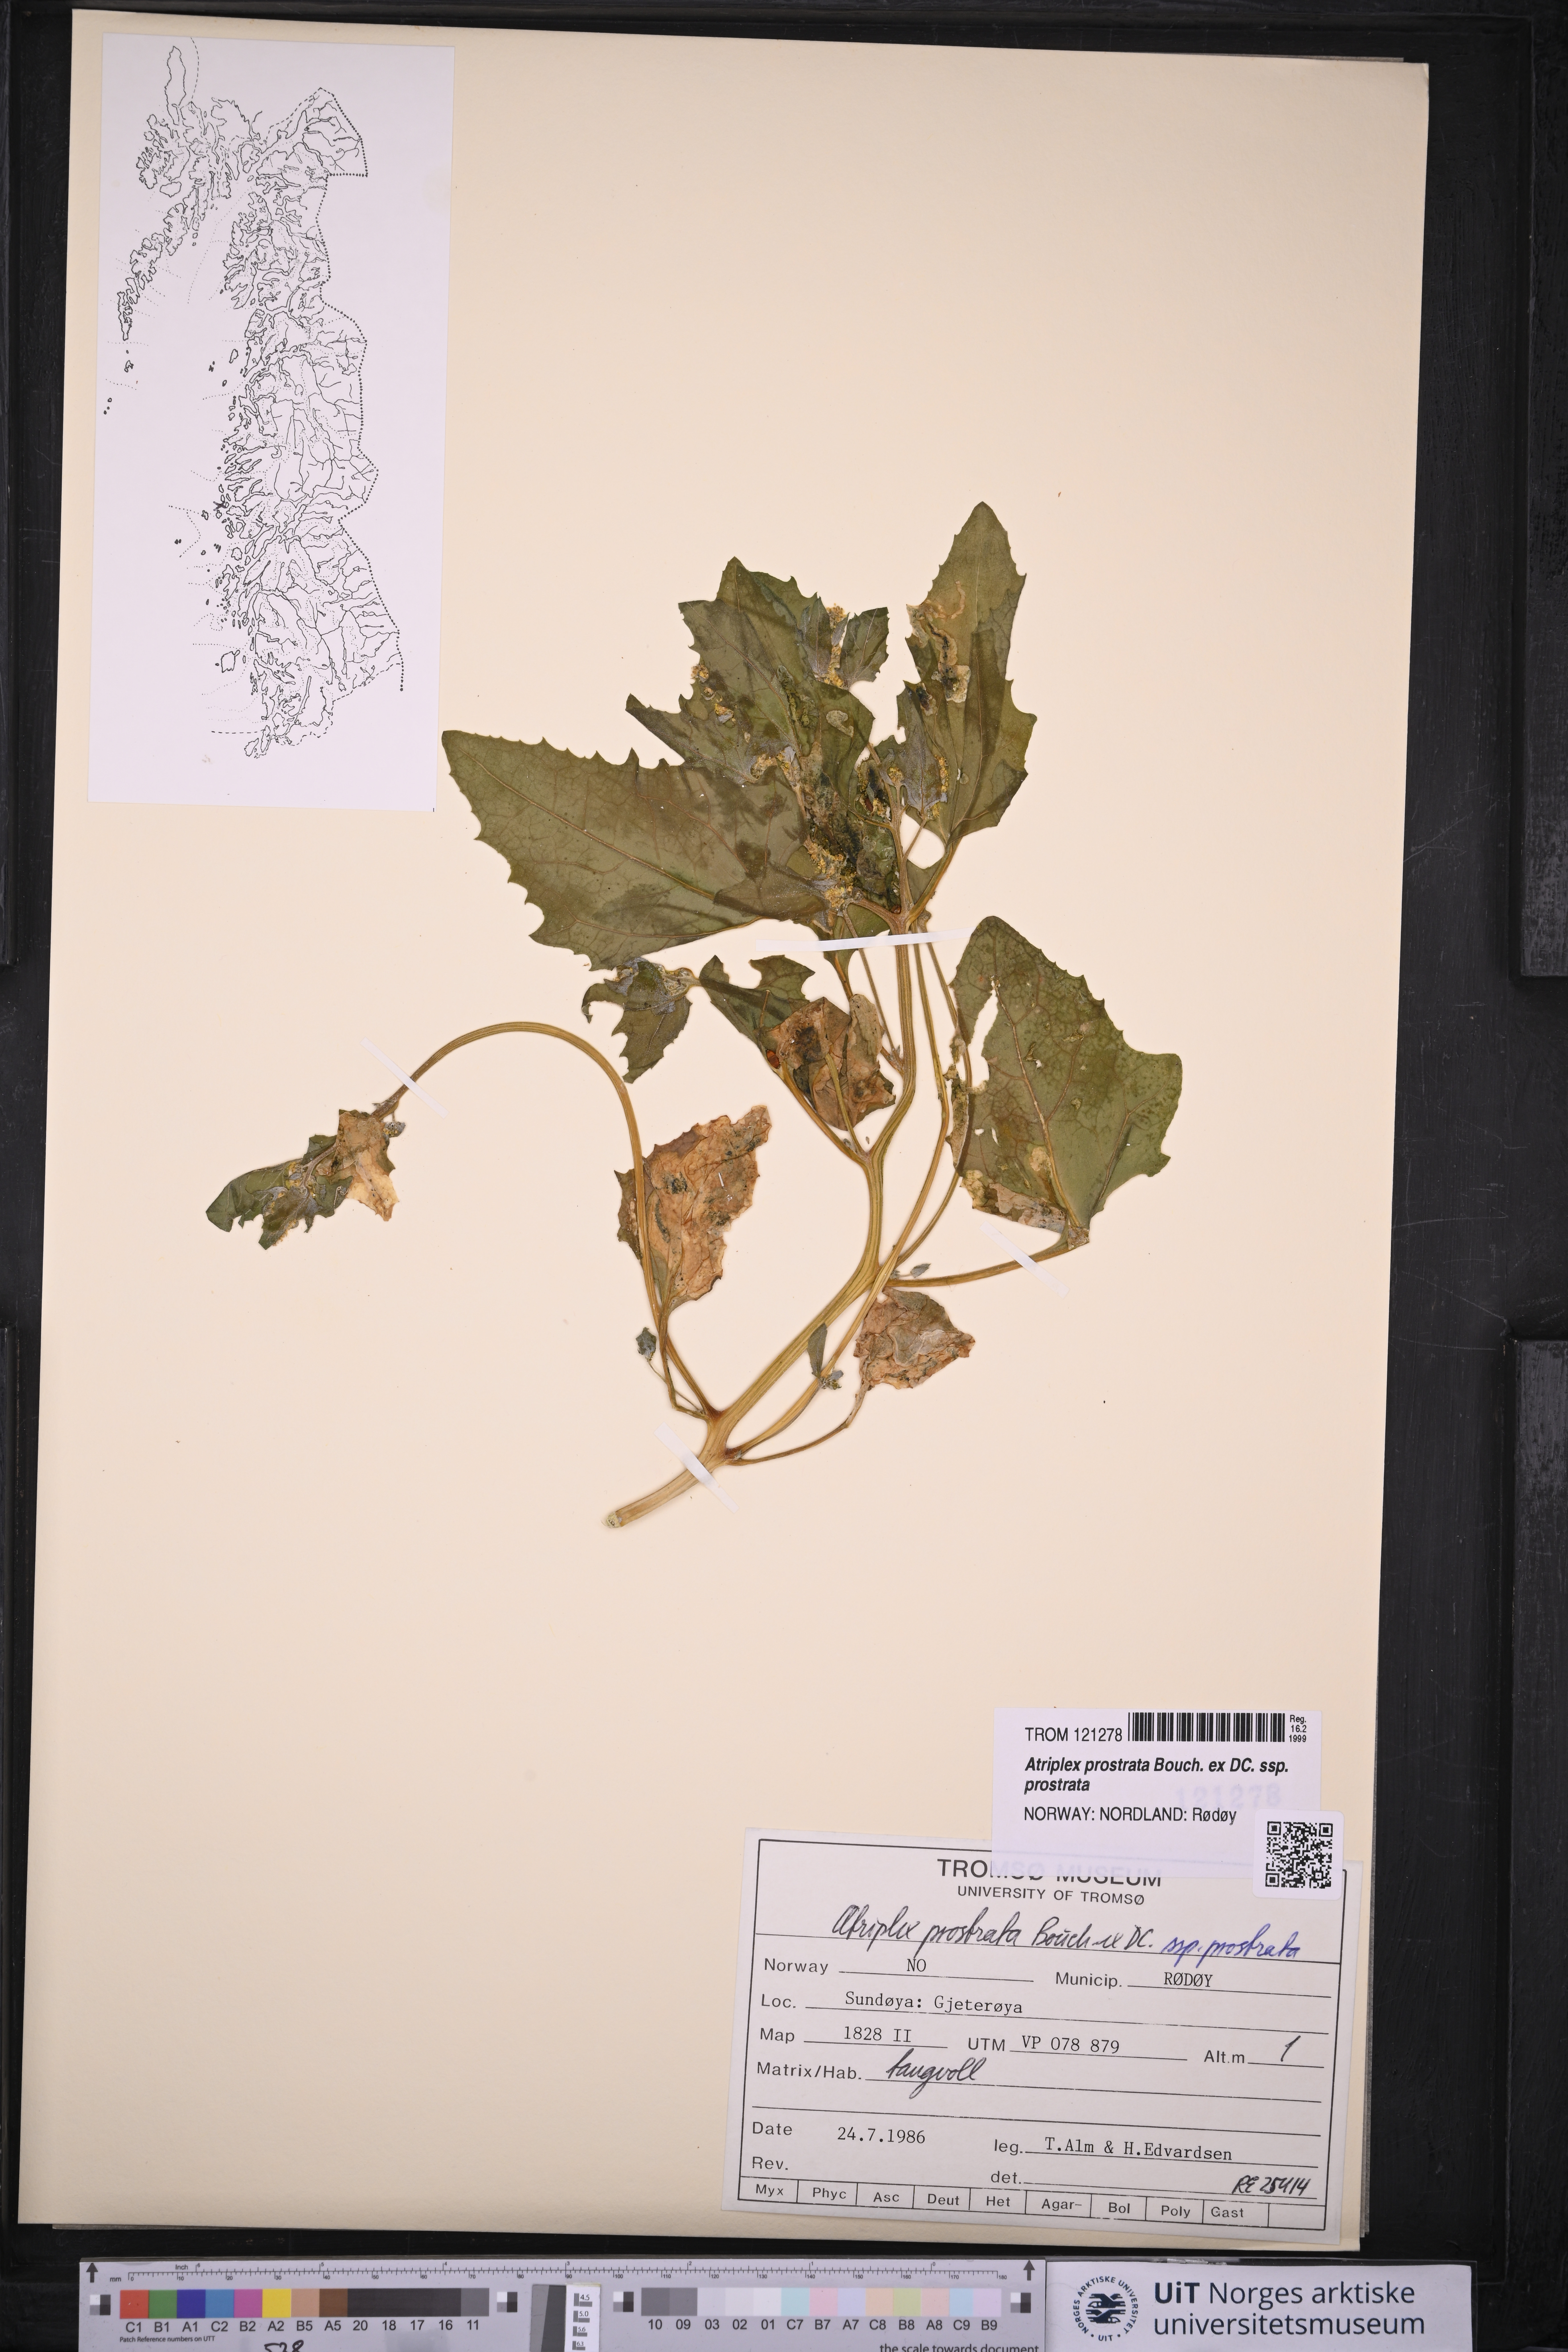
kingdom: Plantae
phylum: Tracheophyta
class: Magnoliopsida
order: Caryophyllales
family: Amaranthaceae
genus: Atriplex
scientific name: Atriplex prostrata
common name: Spear-leaved orache
